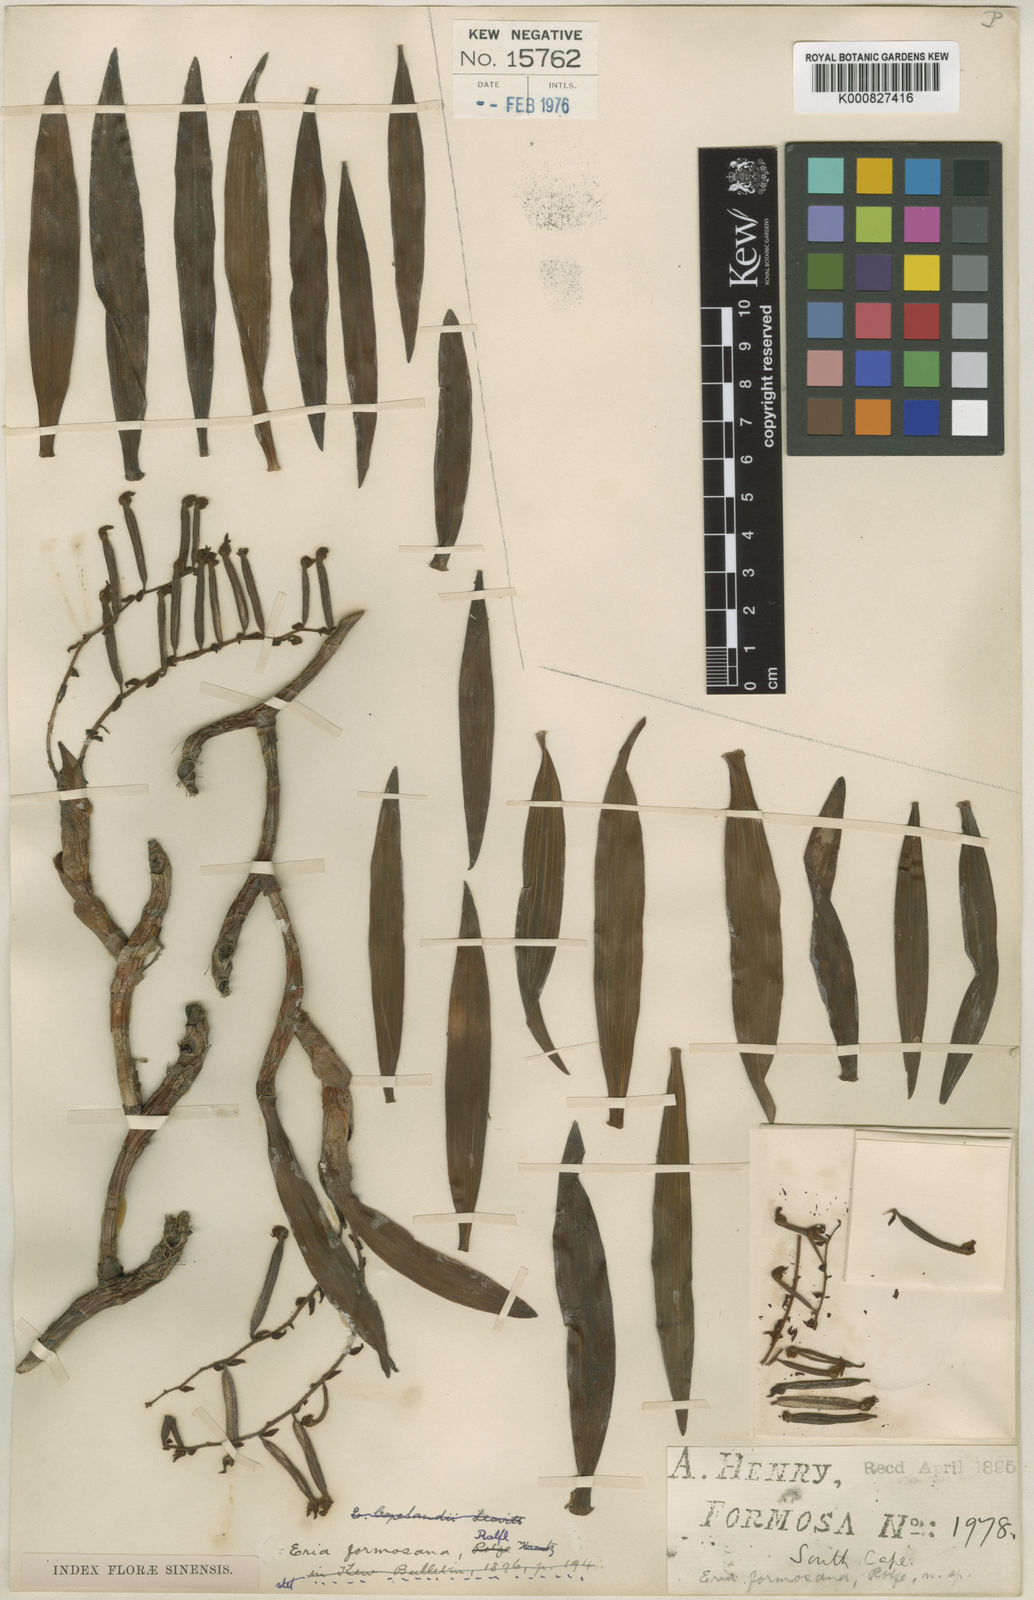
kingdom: Plantae
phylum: Tracheophyta
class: Liliopsida
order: Asparagales
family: Orchidaceae
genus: Pinalia
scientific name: Pinalia formosana
